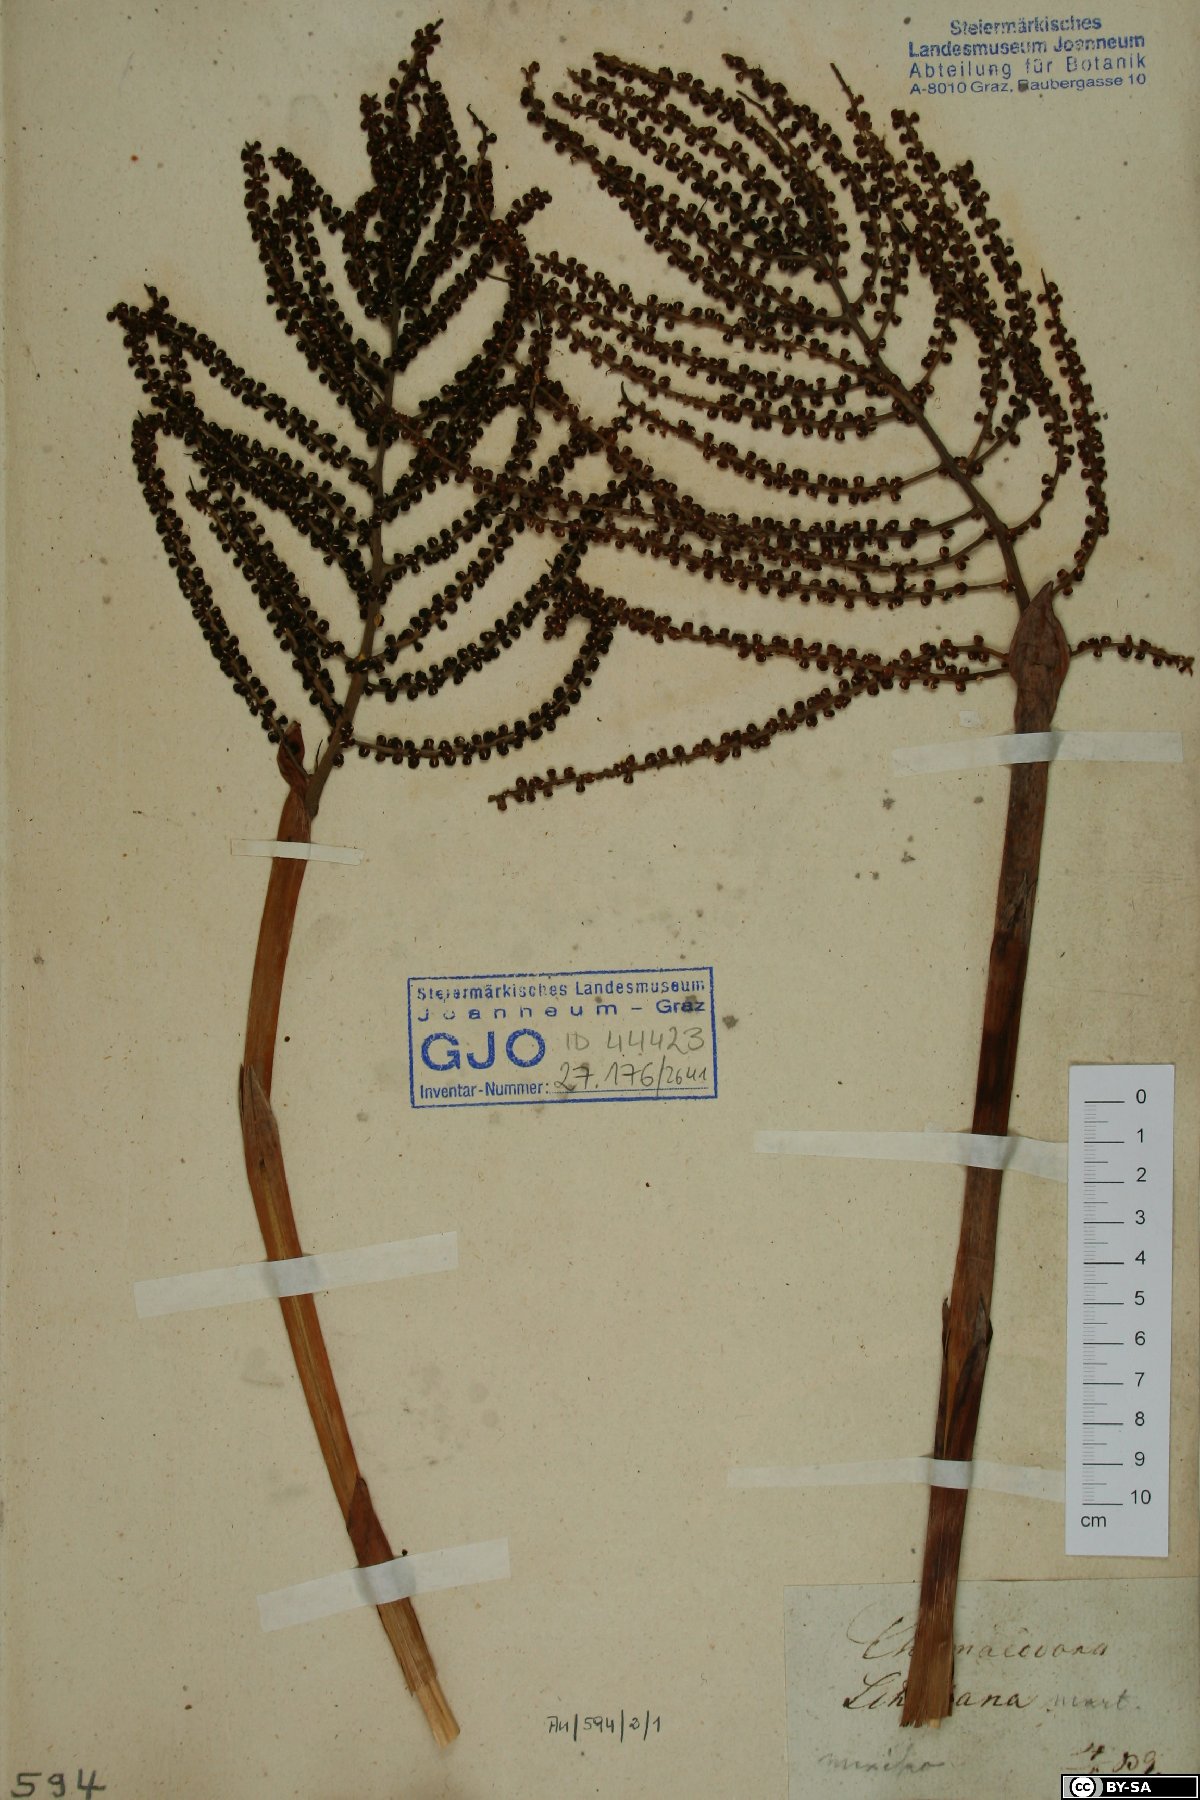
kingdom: Plantae
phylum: Tracheophyta
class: Liliopsida
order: Arecales
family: Arecaceae
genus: Chamaedorea
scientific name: Chamaedorea schiedeana
